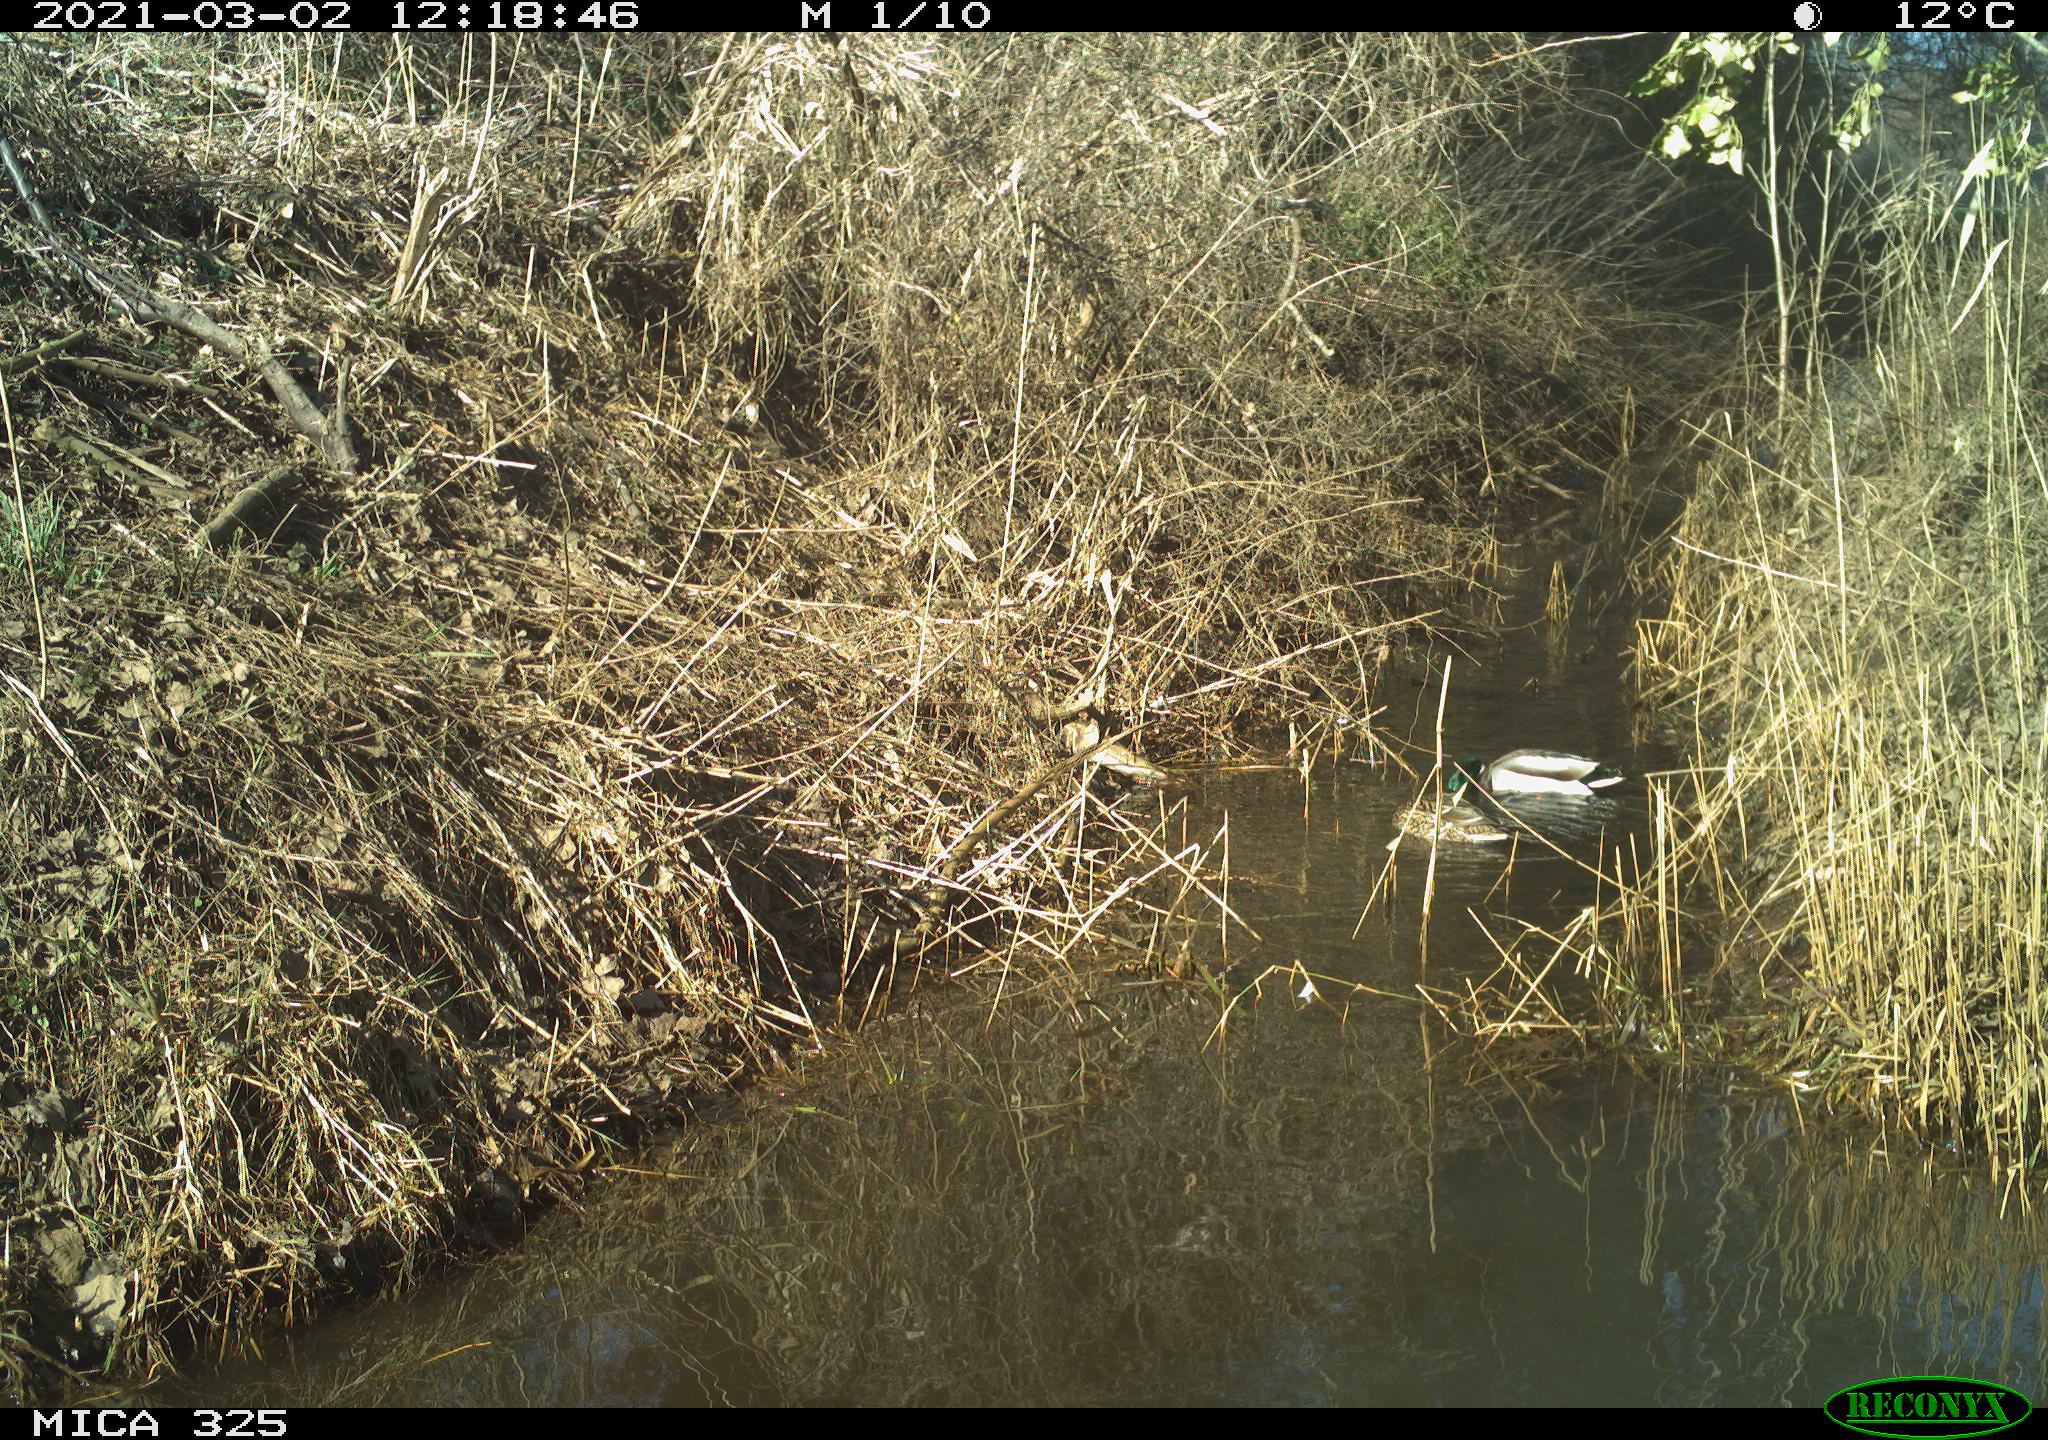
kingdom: Animalia
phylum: Chordata
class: Aves
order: Anseriformes
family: Anatidae
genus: Anas
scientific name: Anas platyrhynchos
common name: Mallard
